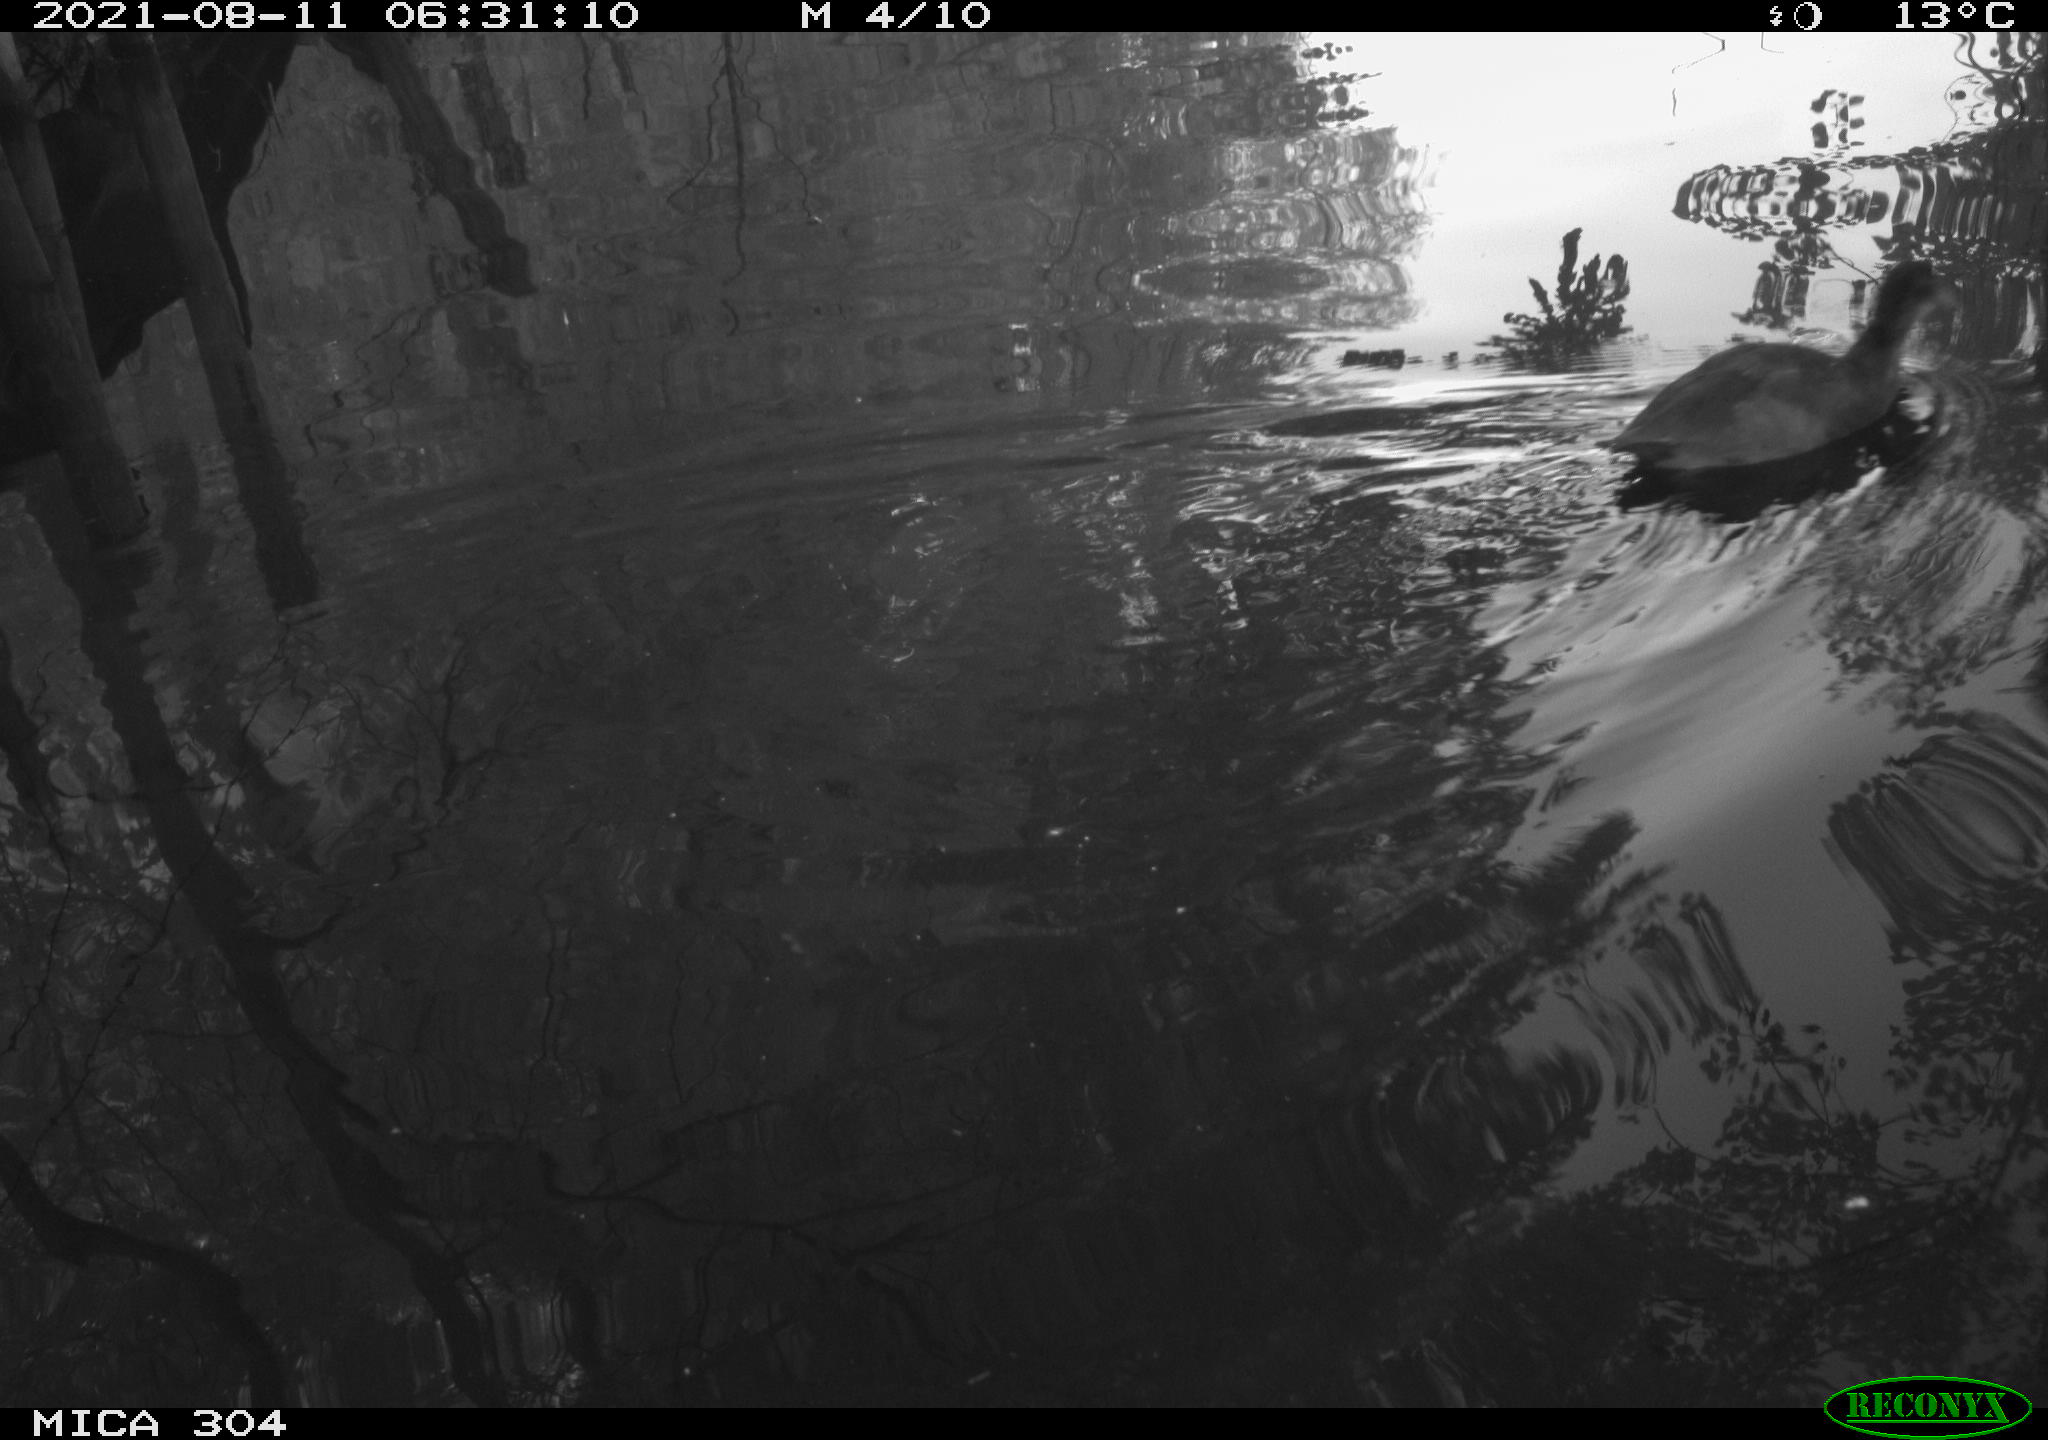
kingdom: Animalia
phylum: Chordata
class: Aves
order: Pelecaniformes
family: Ardeidae
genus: Ardea
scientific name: Ardea
